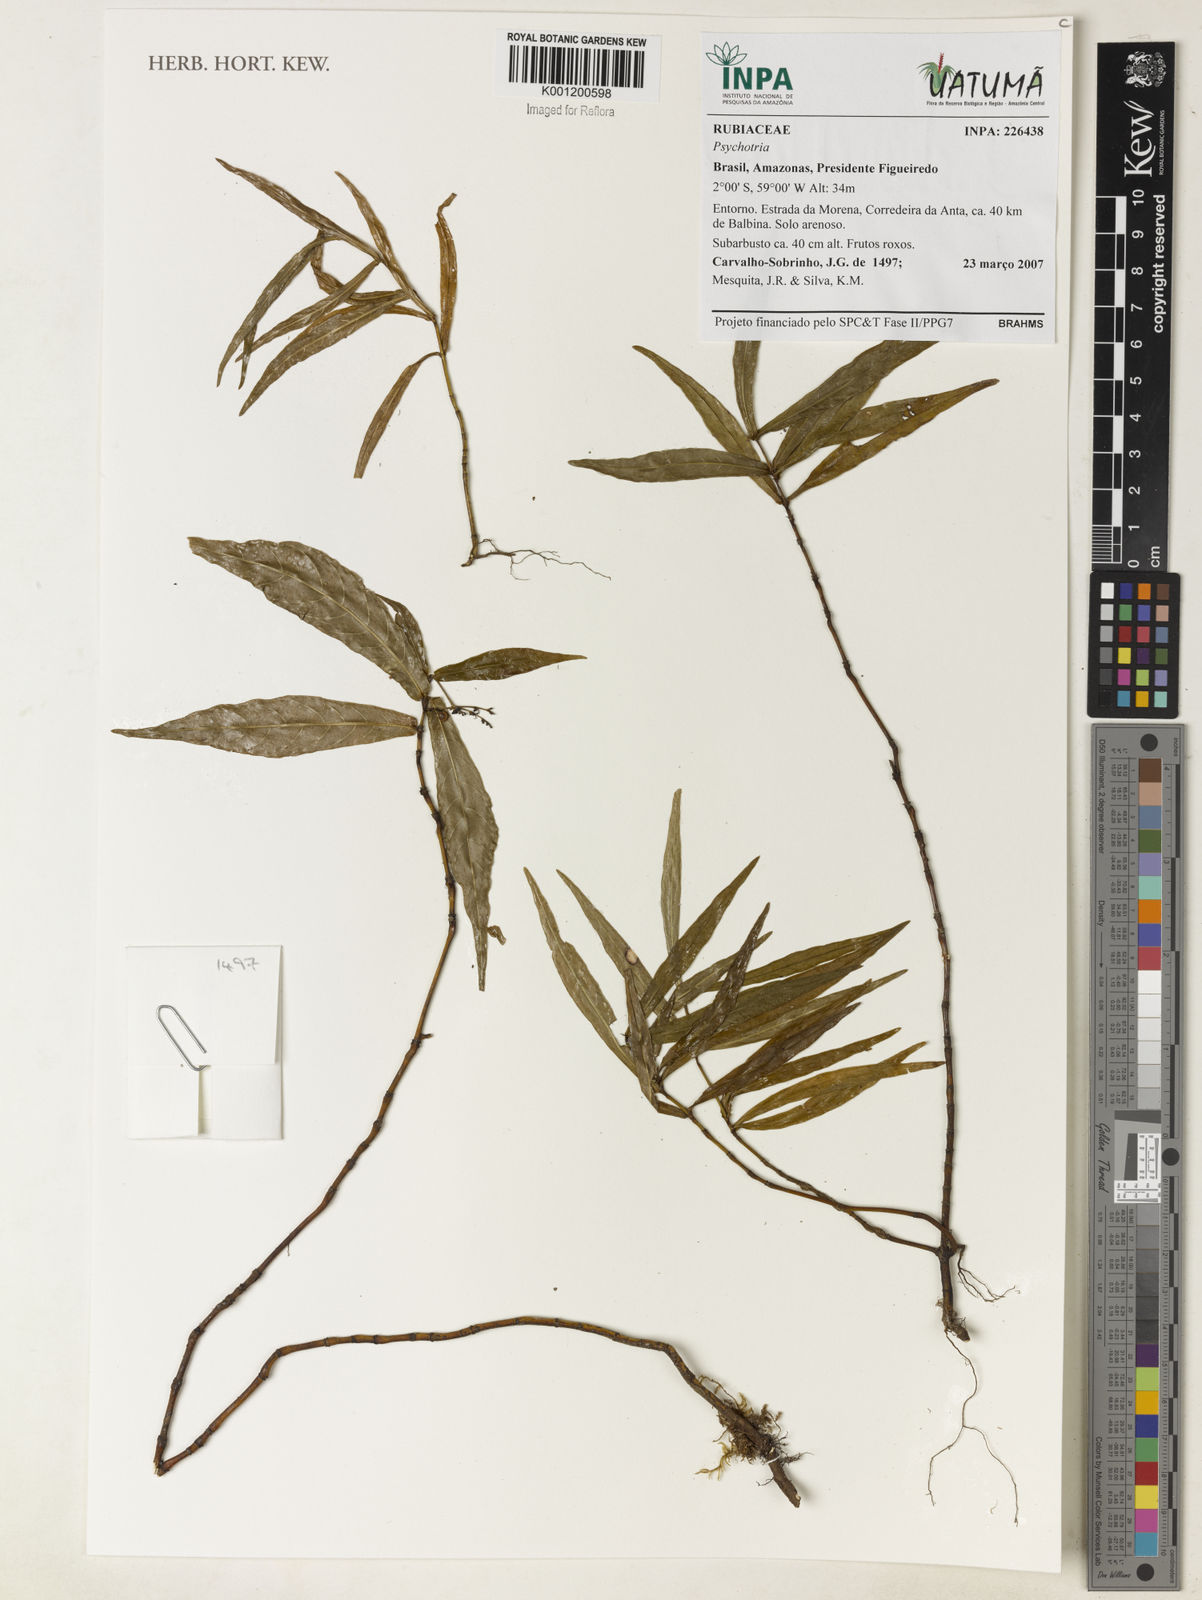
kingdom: Plantae
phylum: Tracheophyta
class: Magnoliopsida
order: Gentianales
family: Rubiaceae
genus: Psychotria
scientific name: Psychotria
